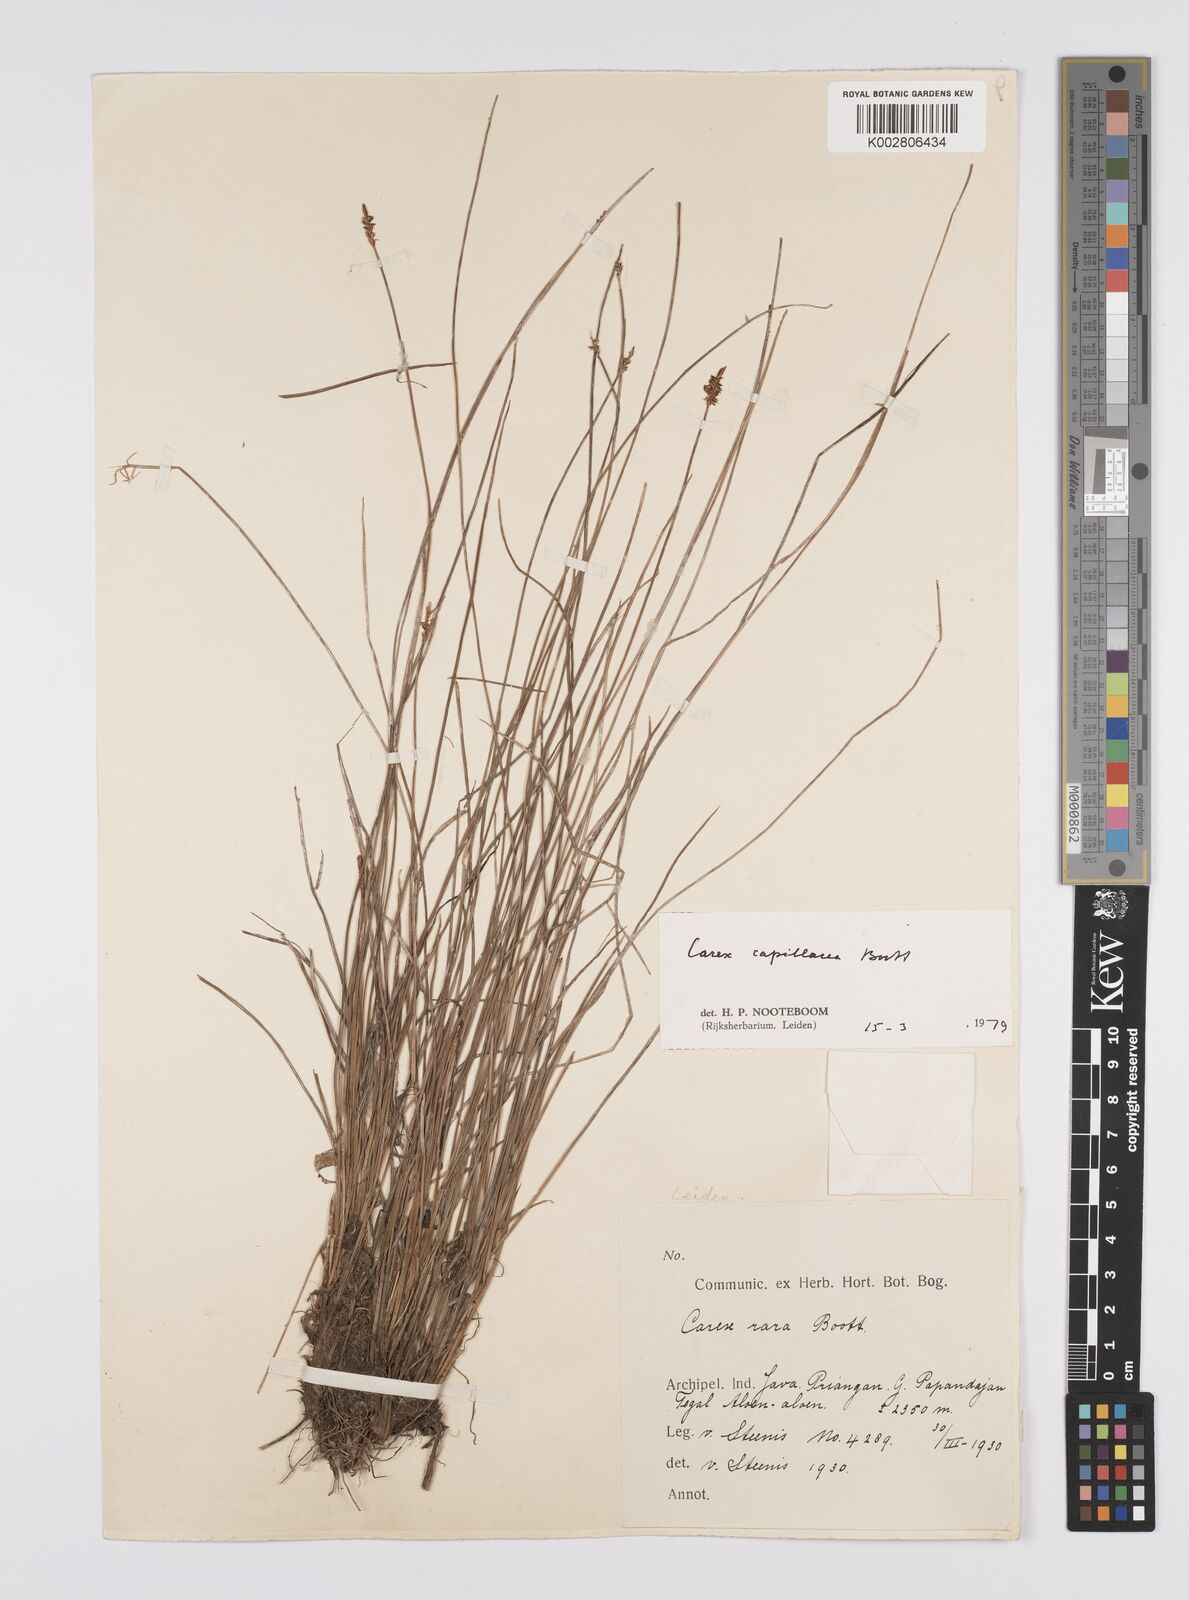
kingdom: Plantae
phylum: Tracheophyta
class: Liliopsida
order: Poales
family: Cyperaceae
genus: Carex
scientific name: Carex capillacea
